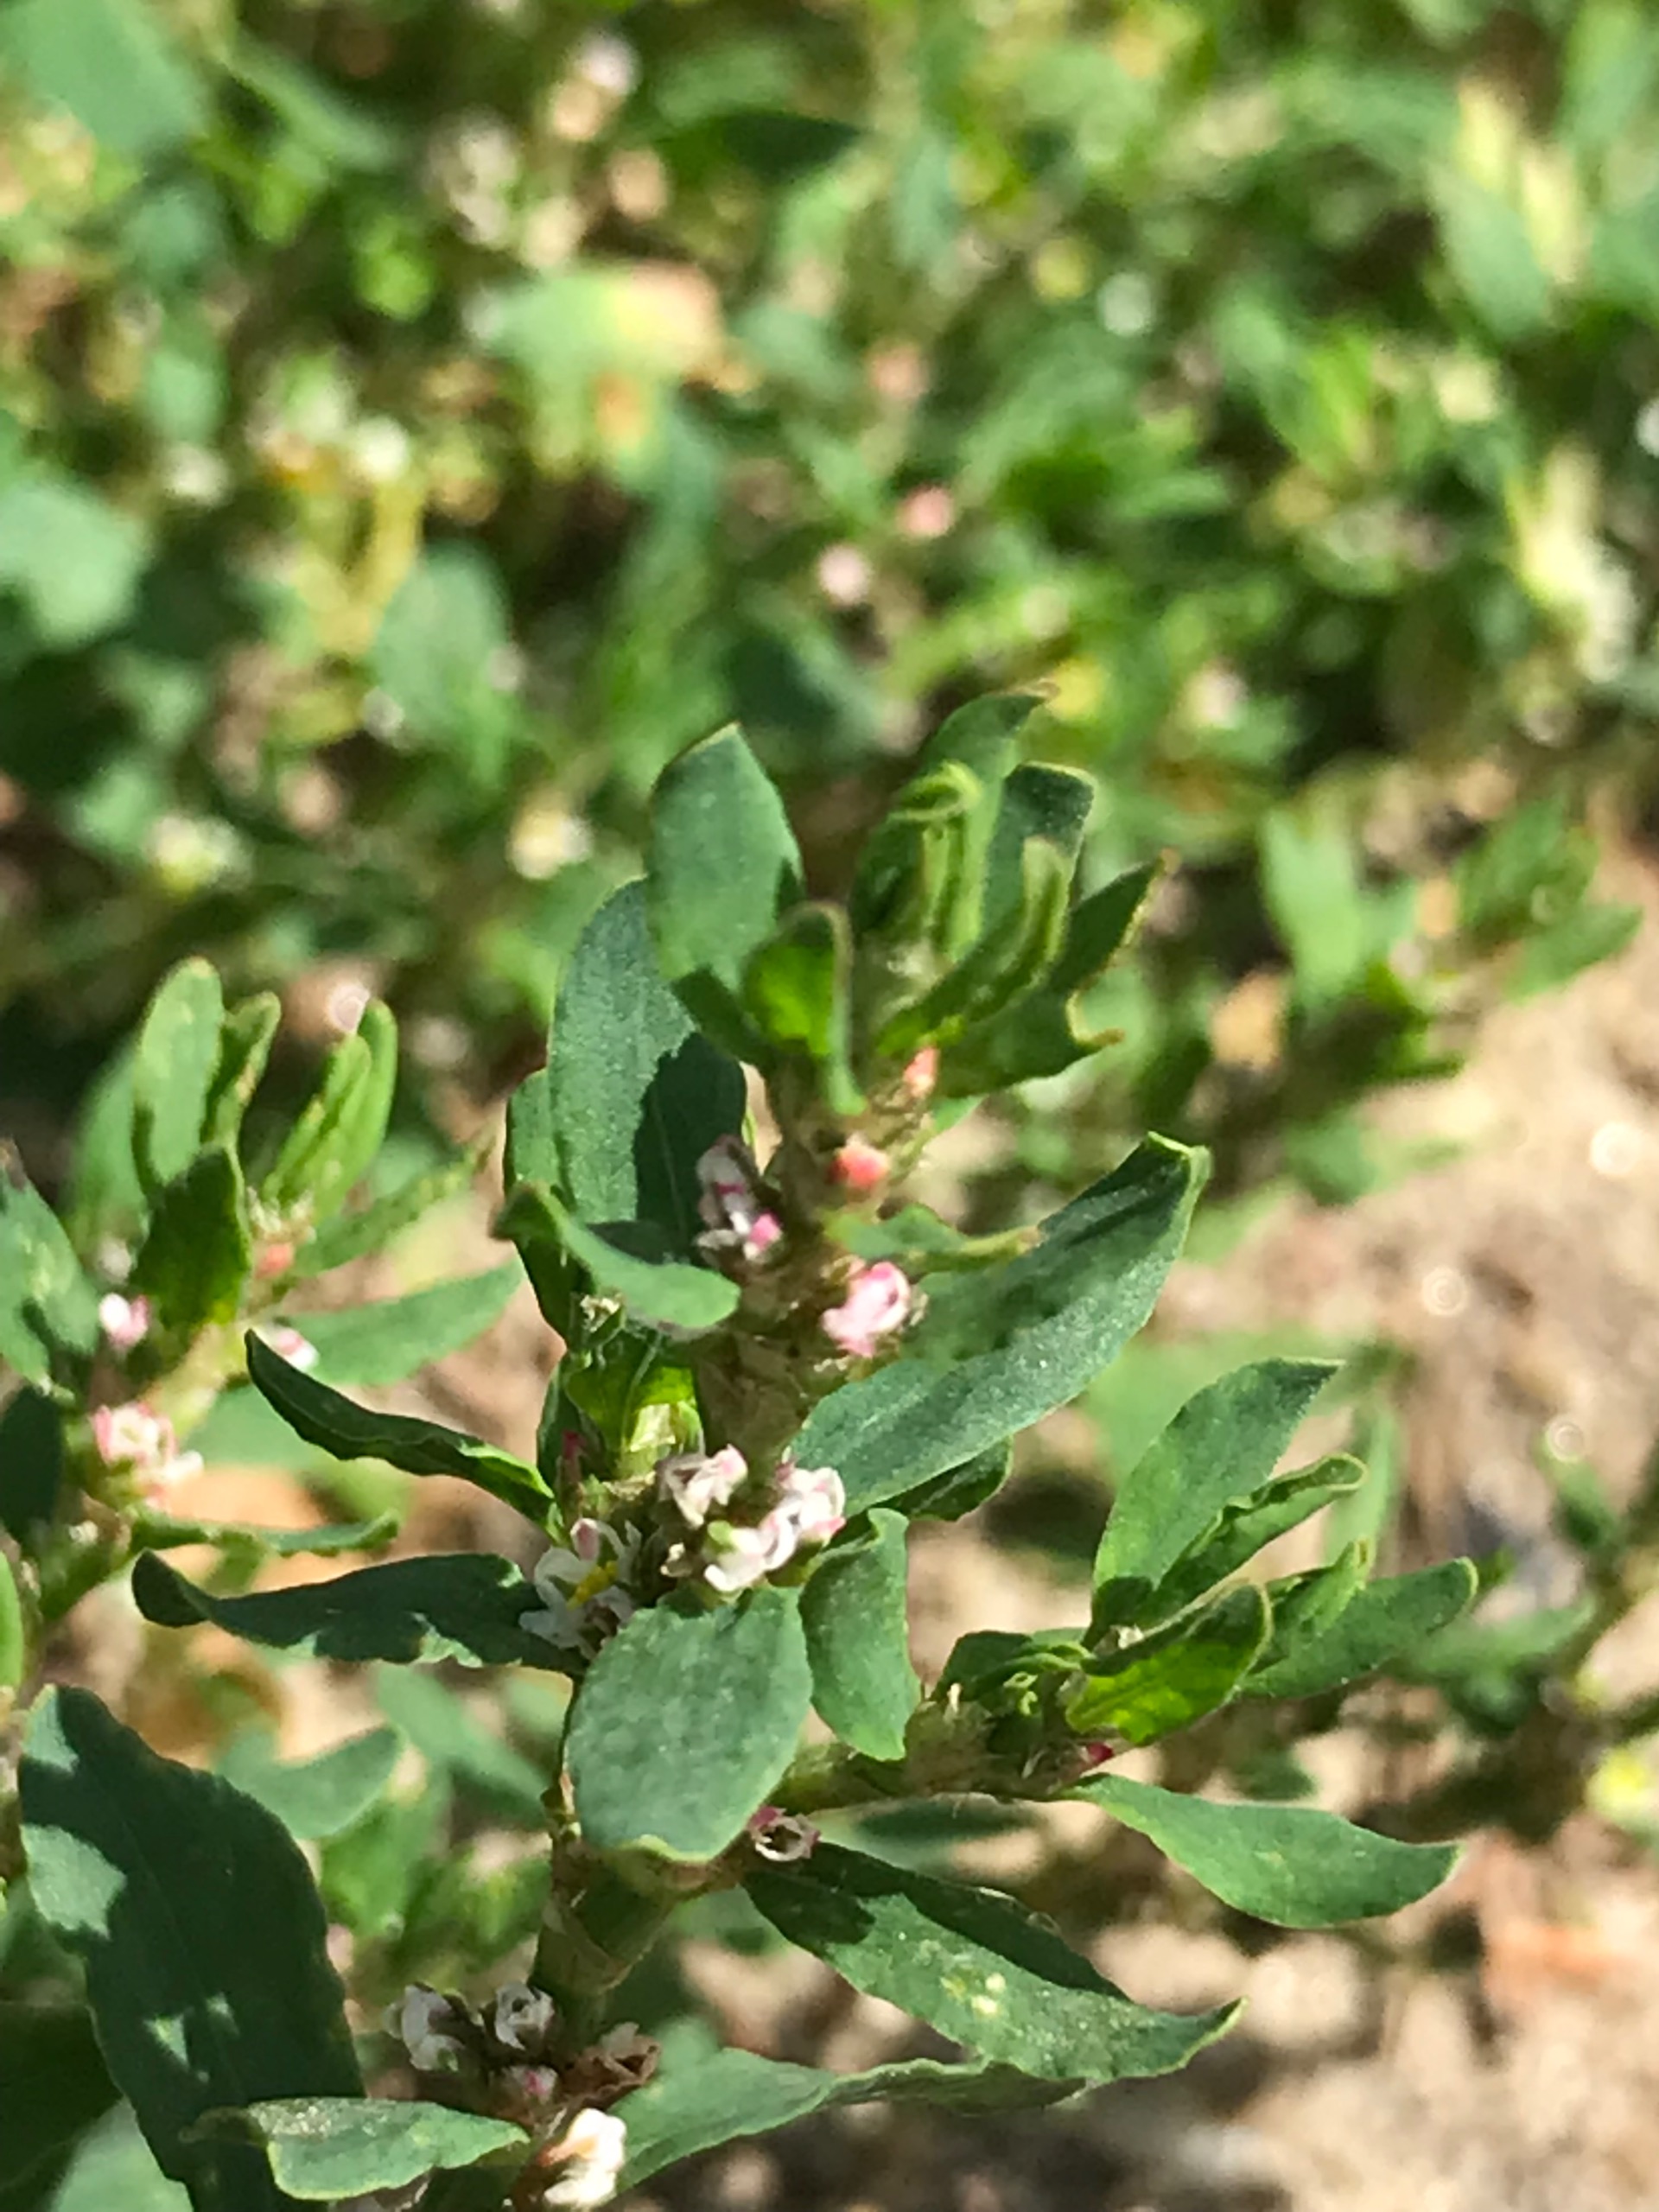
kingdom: Plantae
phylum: Tracheophyta
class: Magnoliopsida
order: Caryophyllales
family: Polygonaceae
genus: Polygonum
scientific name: Polygonum aviculare
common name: Vej-pileurt
